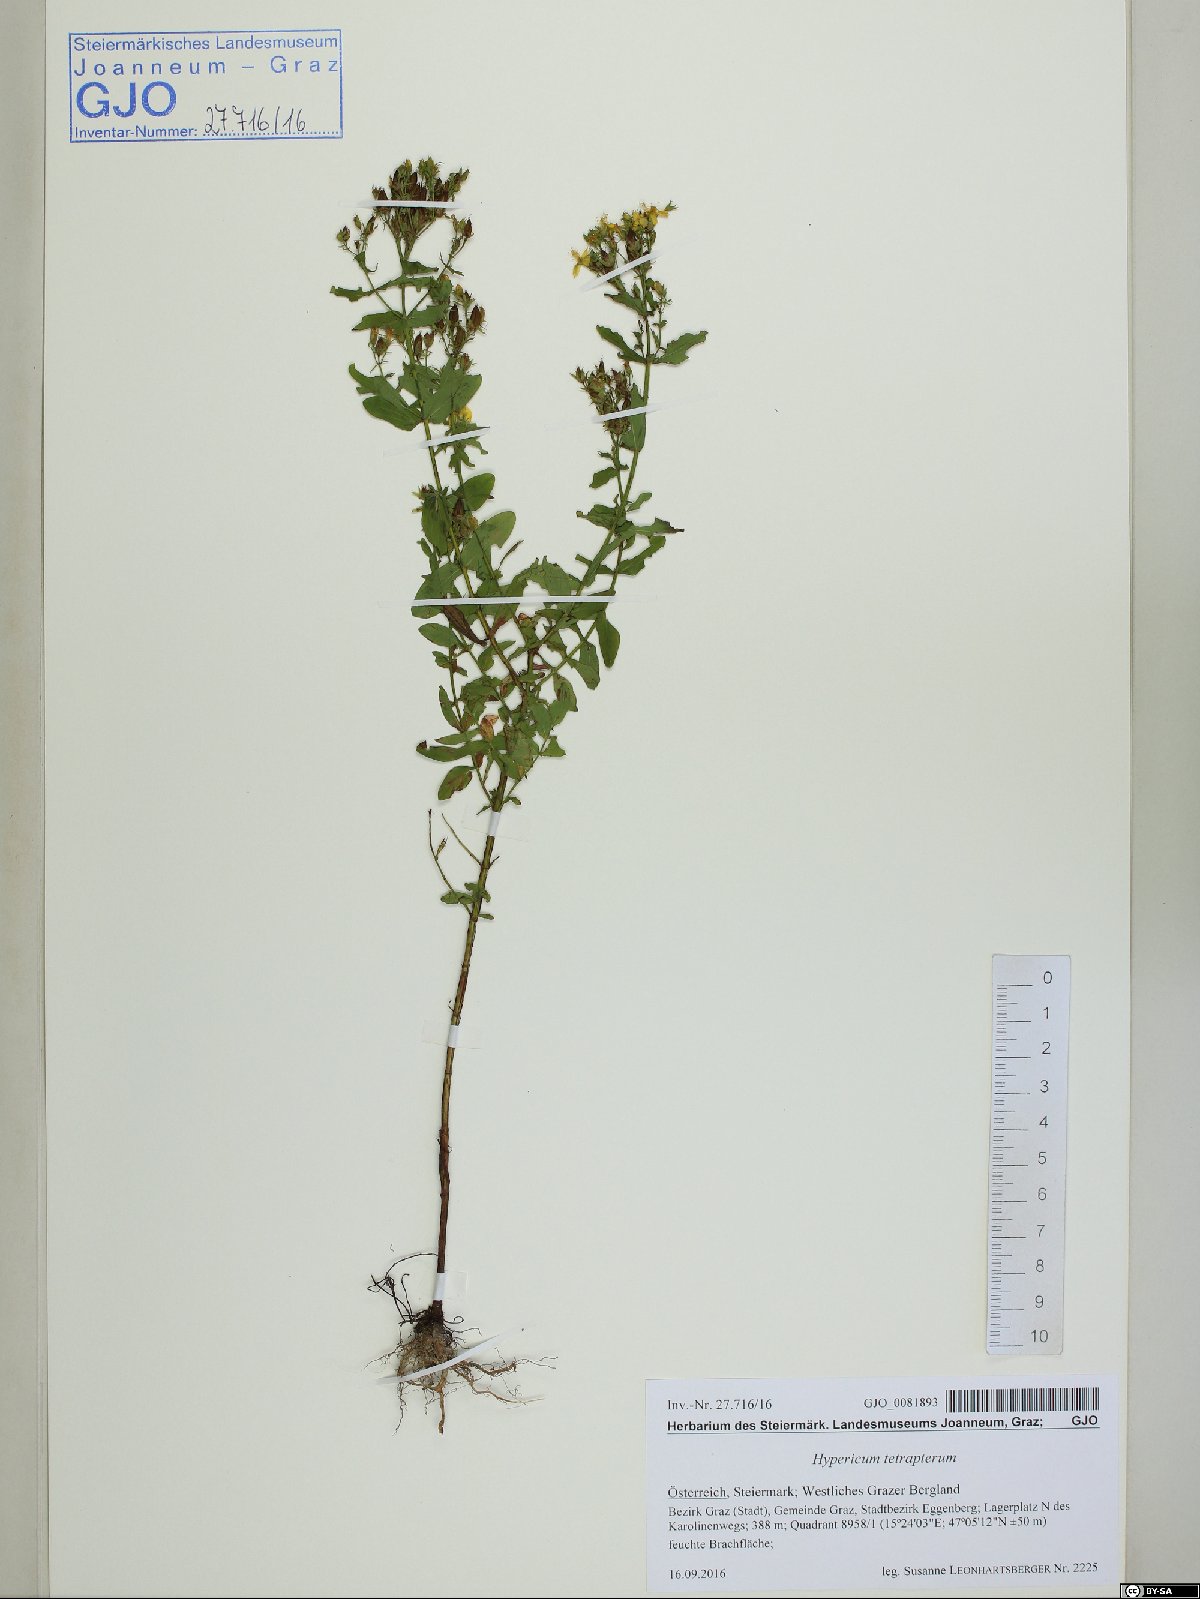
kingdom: Plantae
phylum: Tracheophyta
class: Magnoliopsida
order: Malpighiales
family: Hypericaceae
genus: Hypericum
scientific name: Hypericum tetrapterum
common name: Square-stalked st. john's-wort
